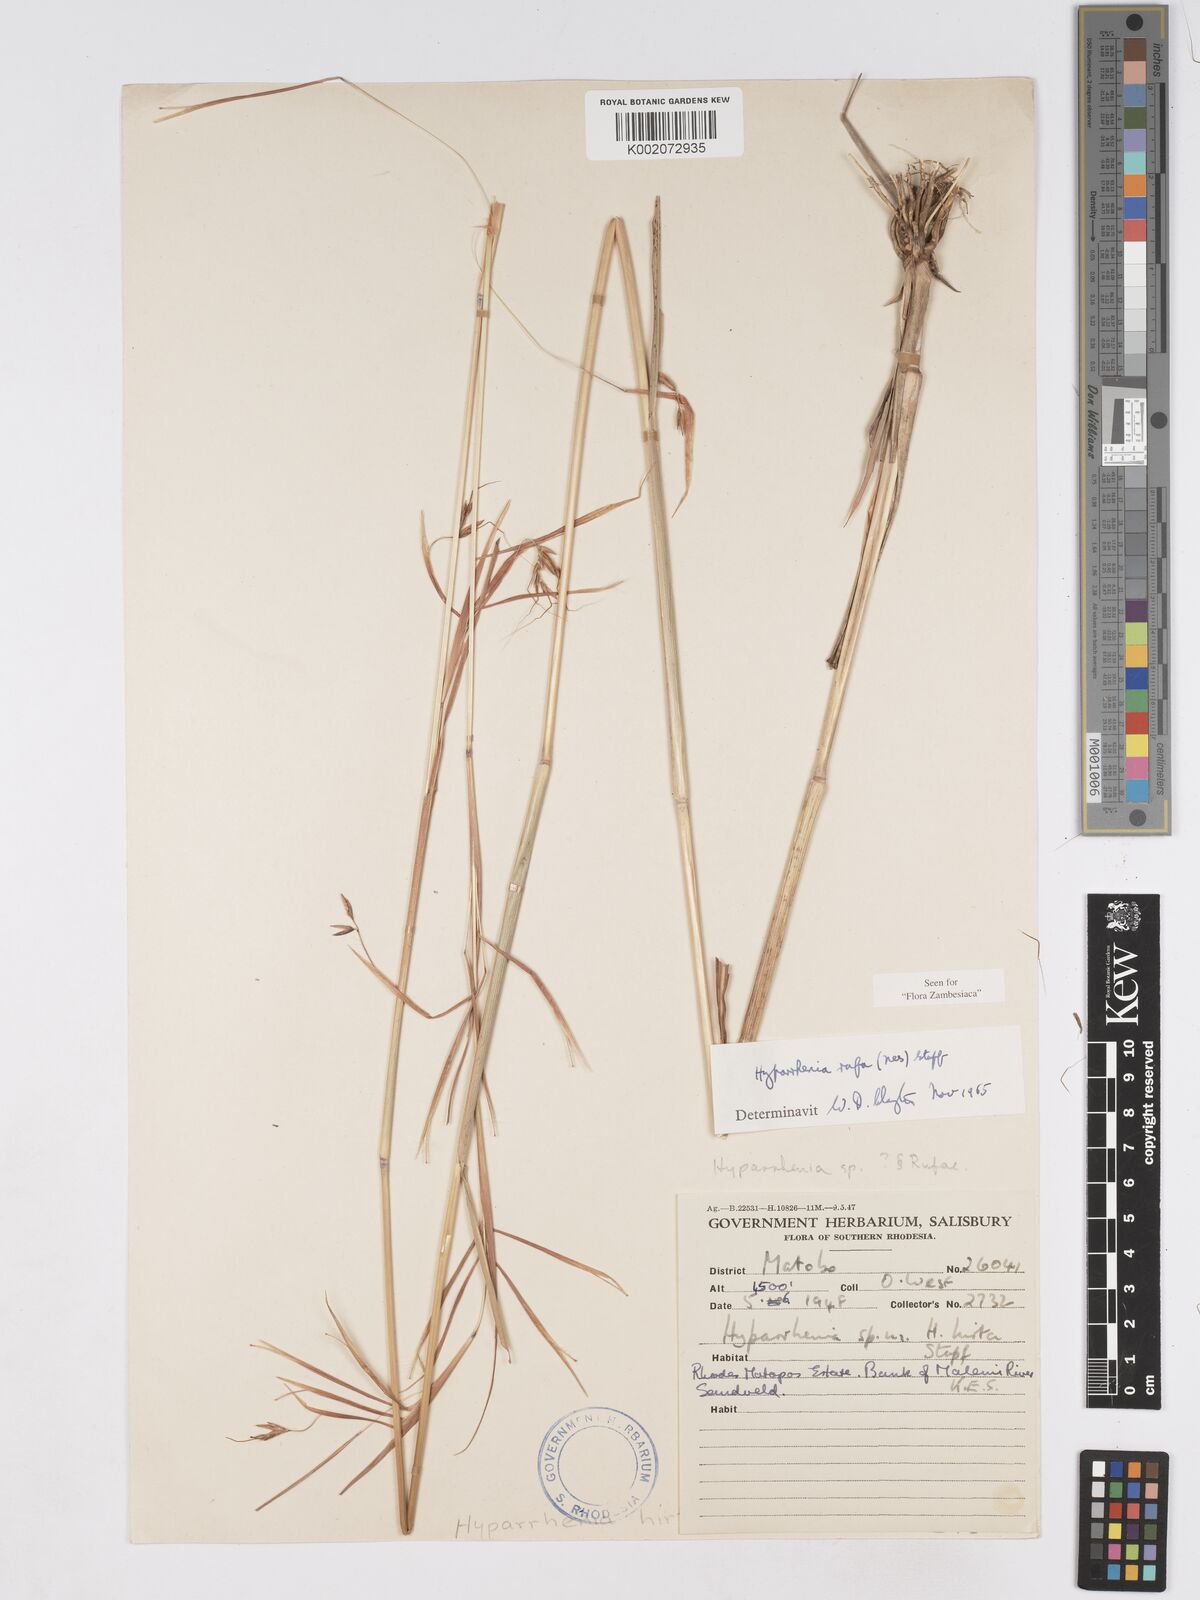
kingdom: Plantae
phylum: Tracheophyta
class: Liliopsida
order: Poales
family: Poaceae
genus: Hyparrhenia
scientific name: Hyparrhenia rufa
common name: Jaraguagrass
